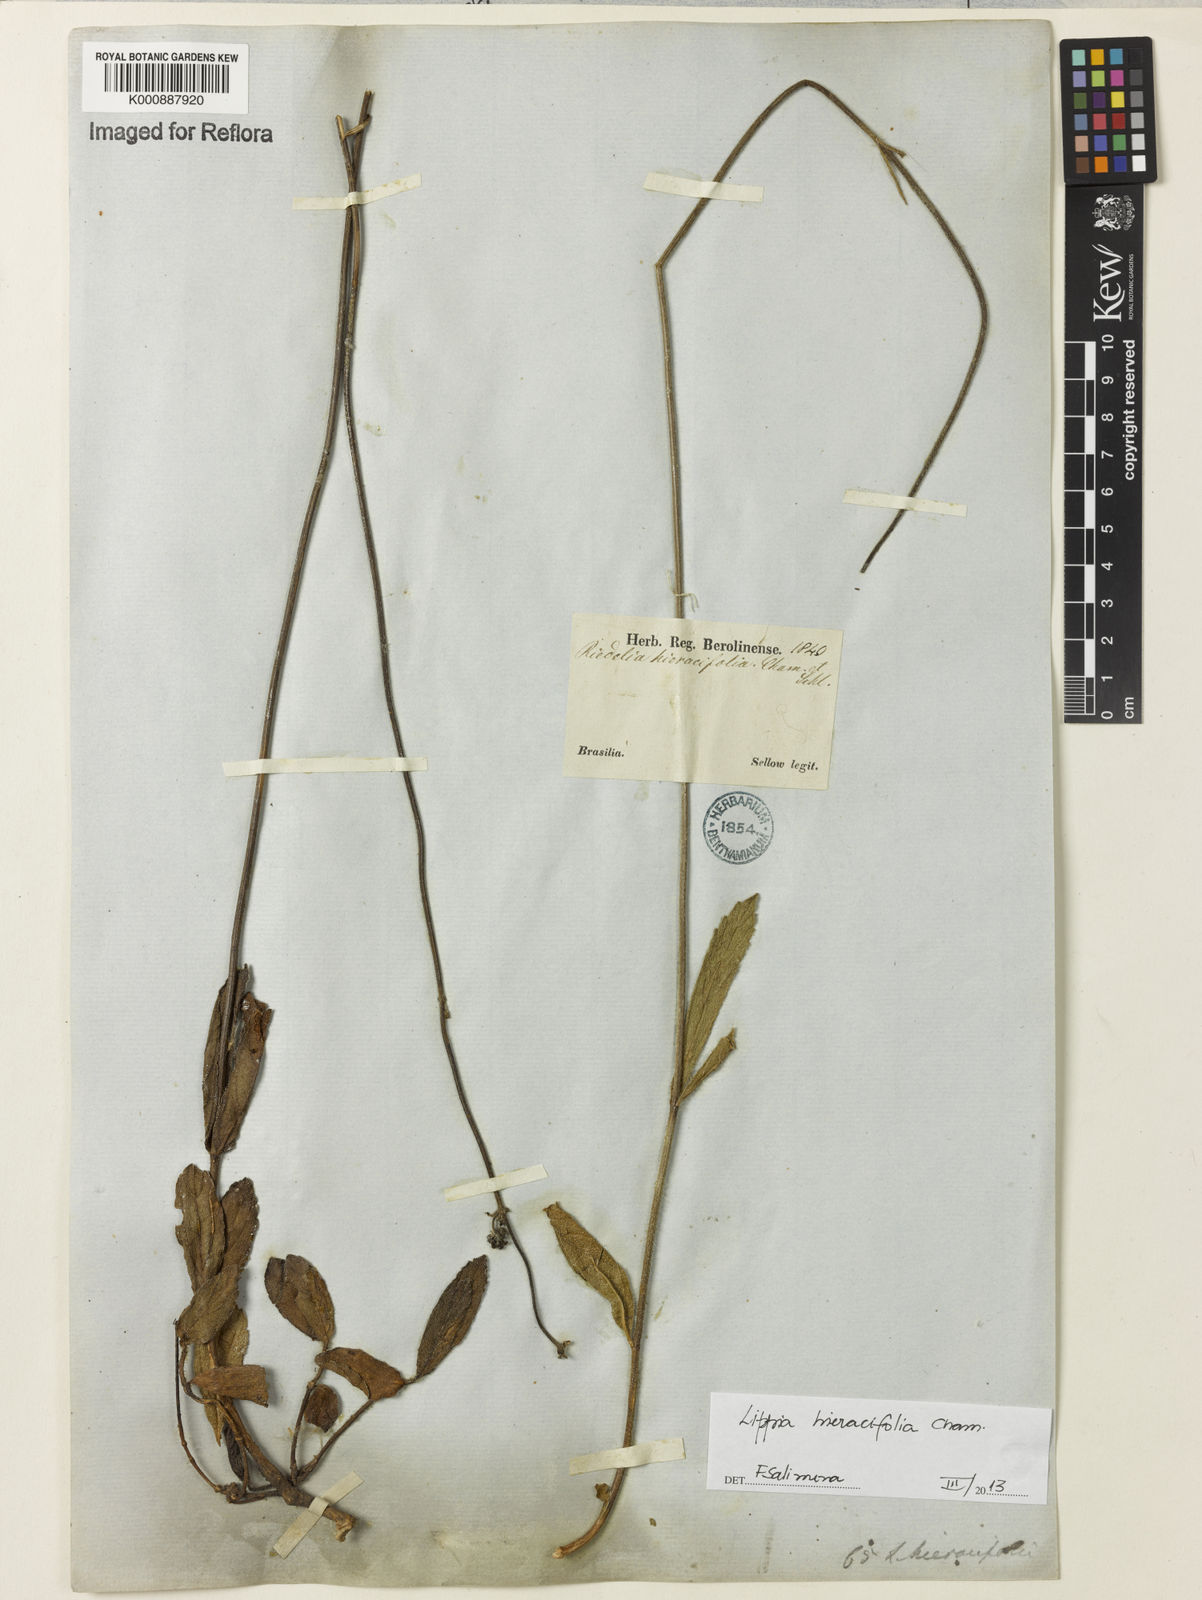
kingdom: Plantae
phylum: Tracheophyta
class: Magnoliopsida
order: Lamiales
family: Verbenaceae
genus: Lippia
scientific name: Lippia hieraciifolia
